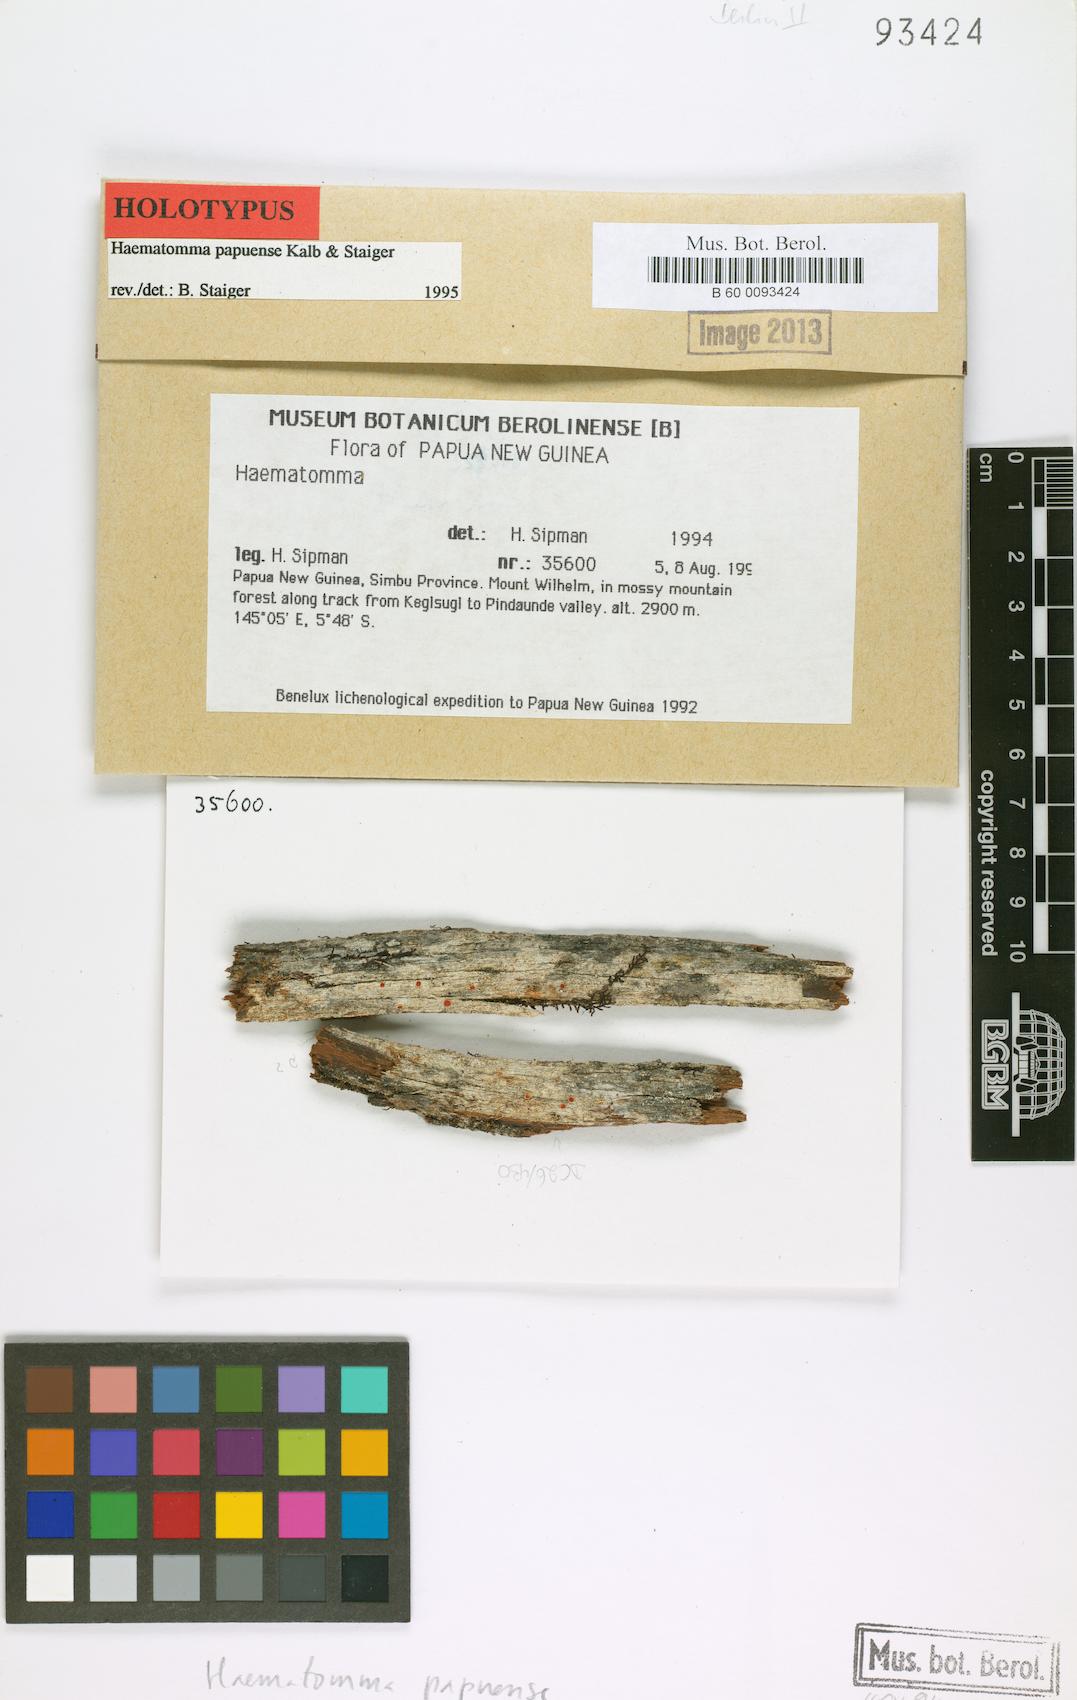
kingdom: Fungi
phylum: Ascomycota
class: Lecanoromycetes
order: Lecanorales
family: Haematommataceae
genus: Haematomma
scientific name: Haematomma
